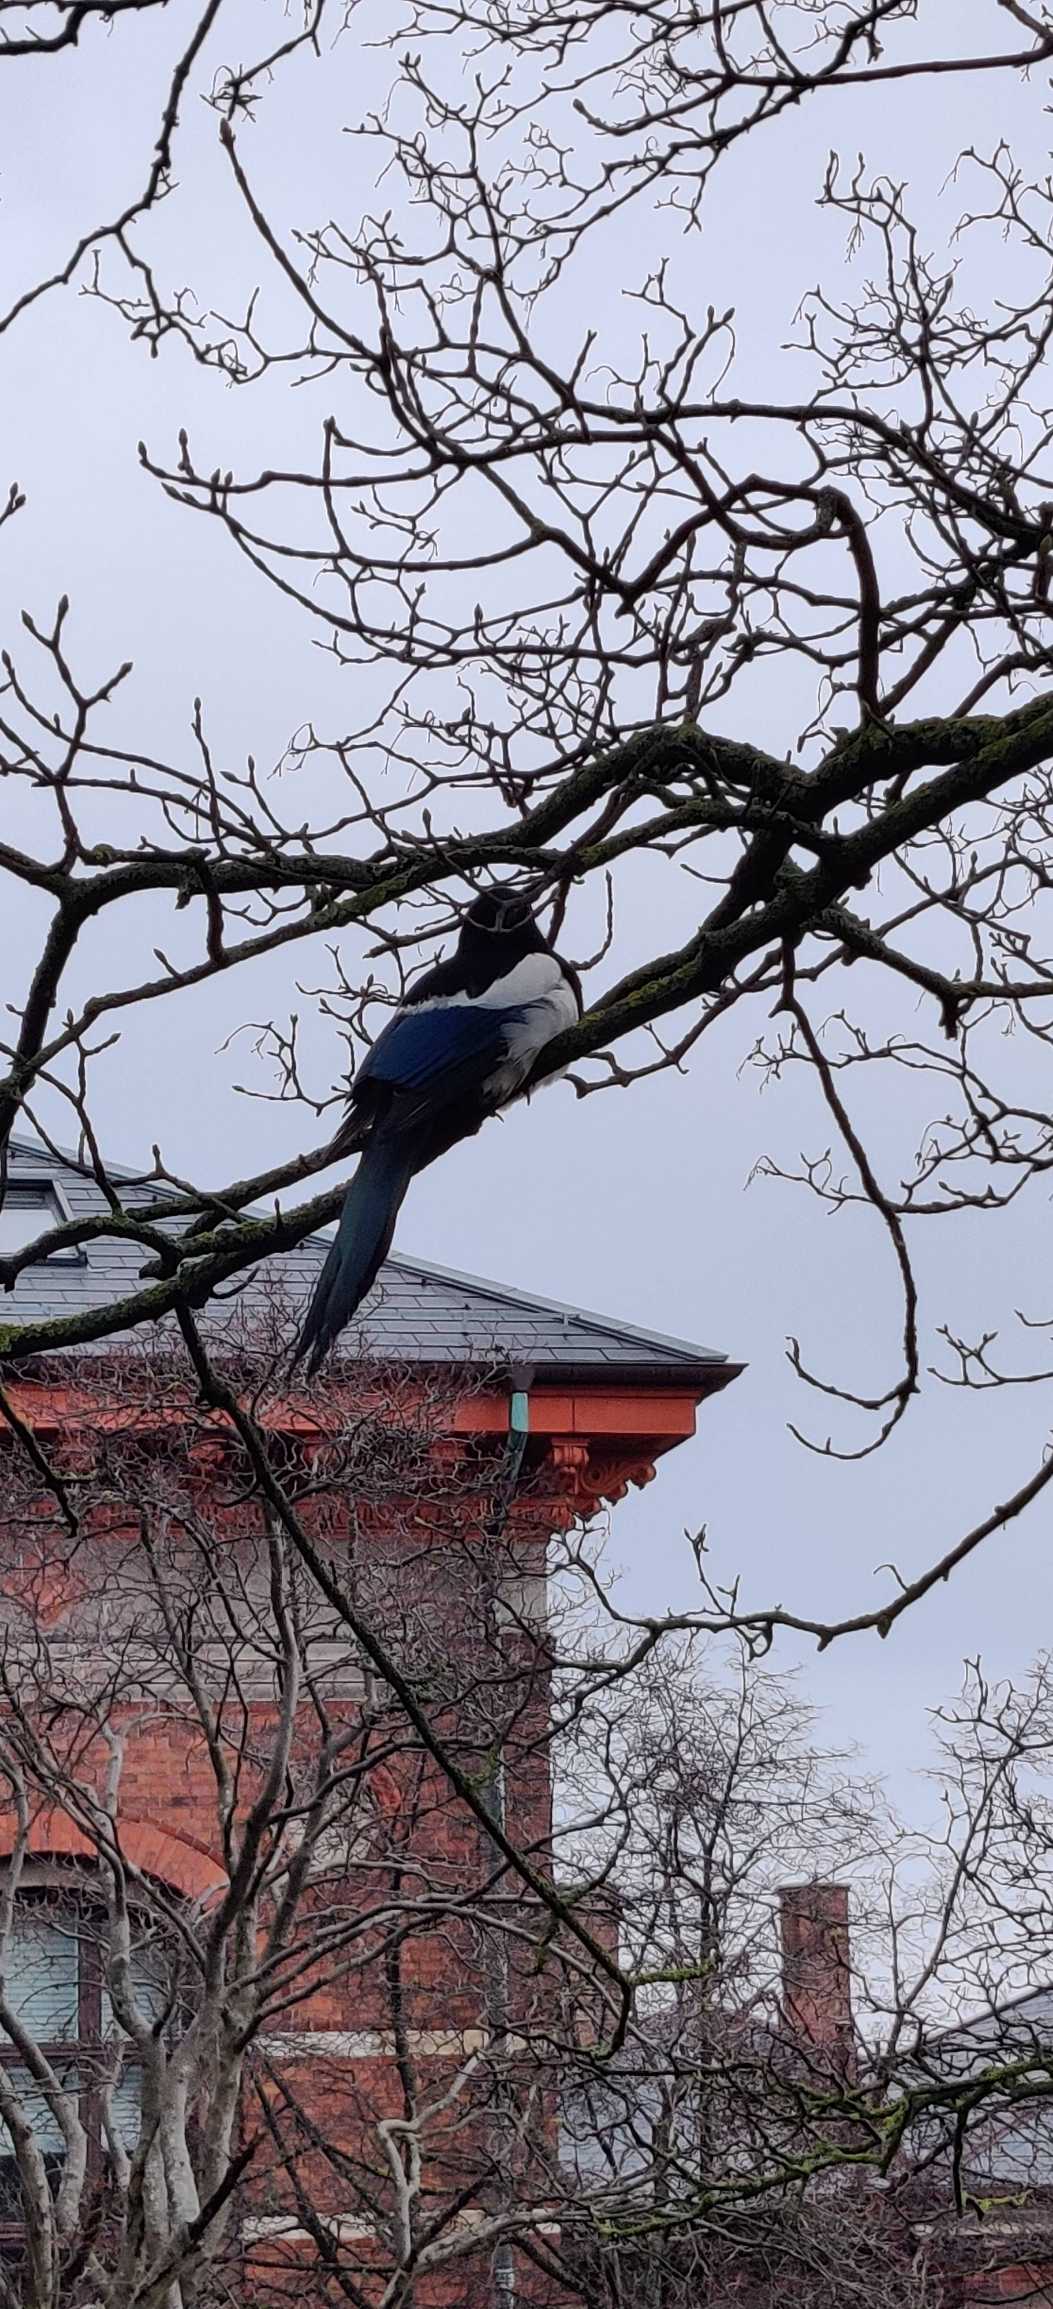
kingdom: Animalia
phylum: Chordata
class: Aves
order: Passeriformes
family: Corvidae
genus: Pica
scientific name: Pica pica
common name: Husskade
